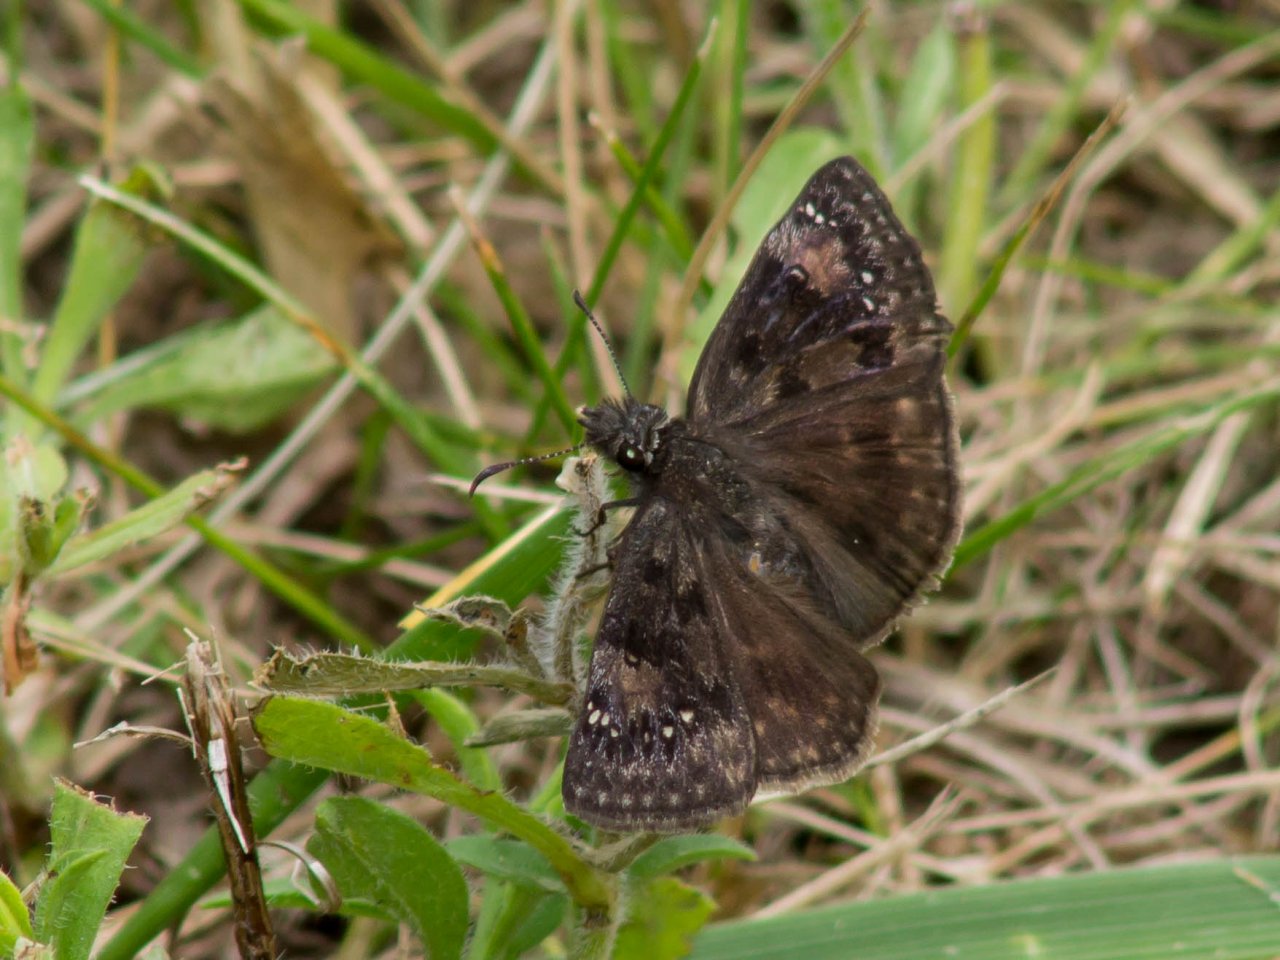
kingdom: Animalia
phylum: Arthropoda
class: Insecta
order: Lepidoptera
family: Hesperiidae
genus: Gesta
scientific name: Gesta
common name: Horace's Duskywing
